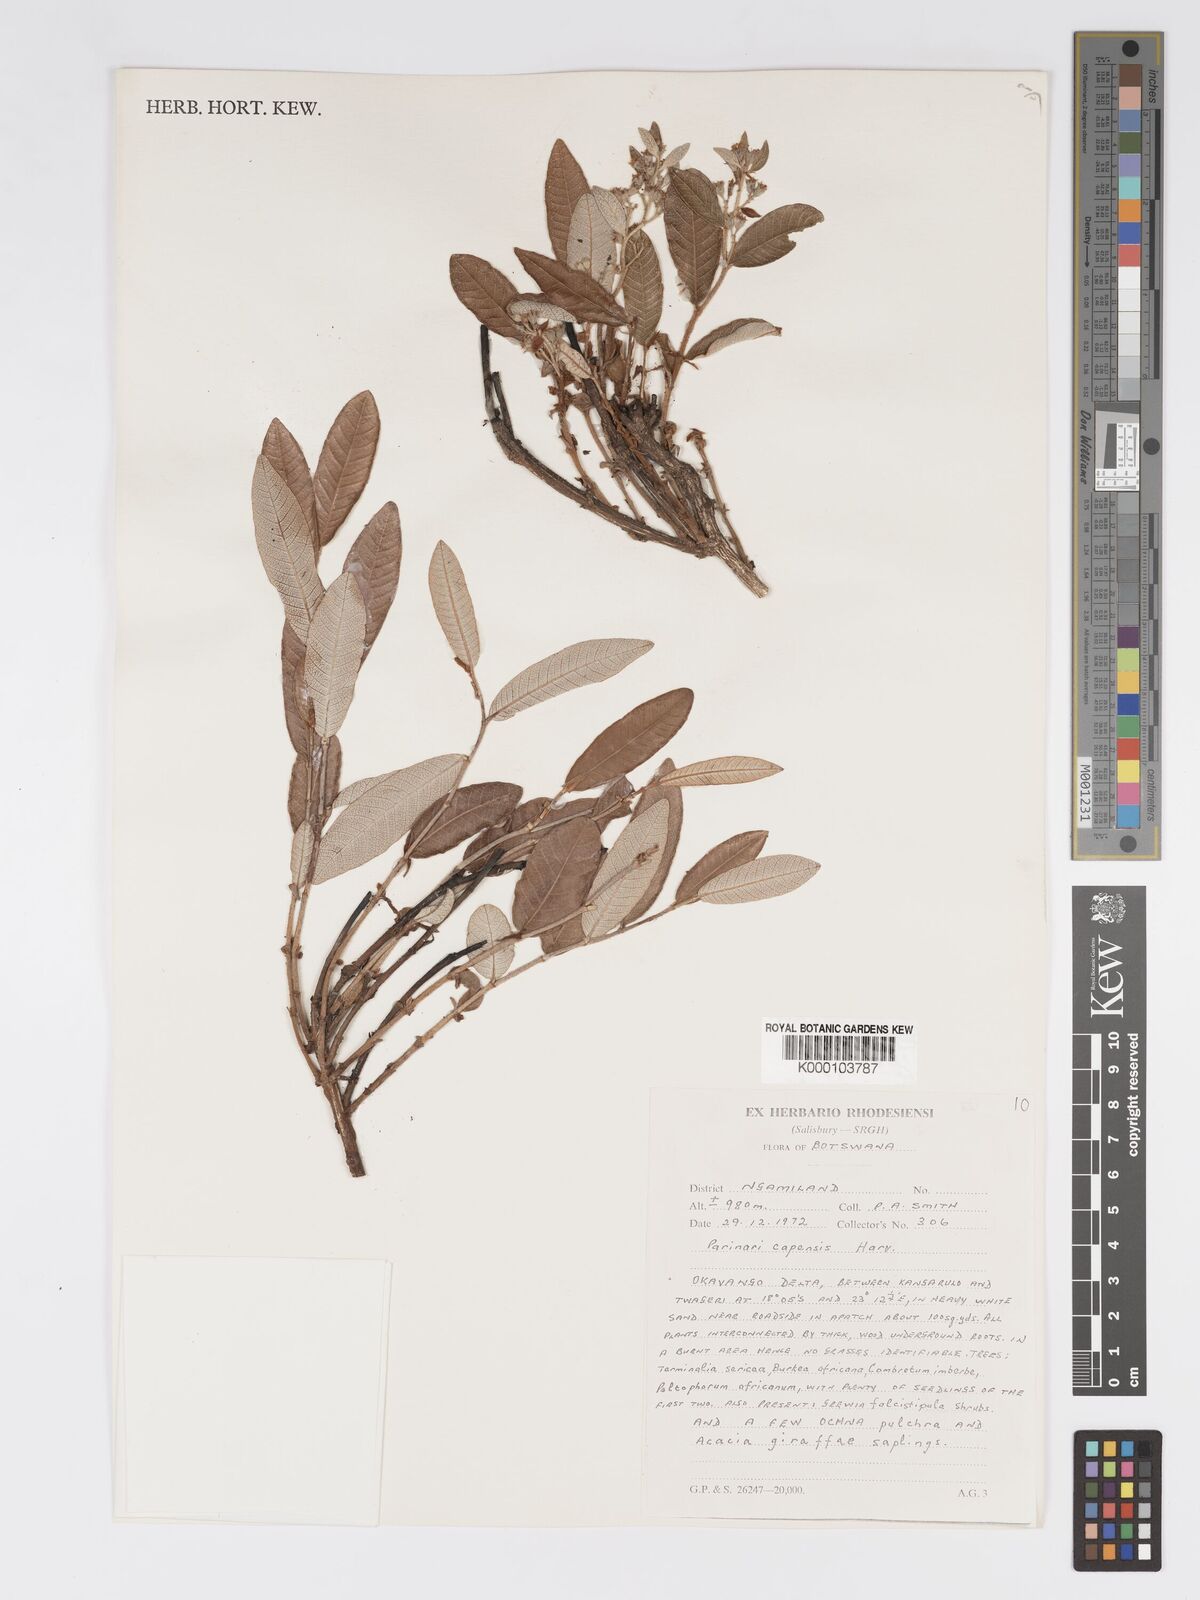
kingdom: Plantae
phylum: Tracheophyta
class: Magnoliopsida
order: Malpighiales
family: Chrysobalanaceae
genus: Parinari
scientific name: Parinari capensis
